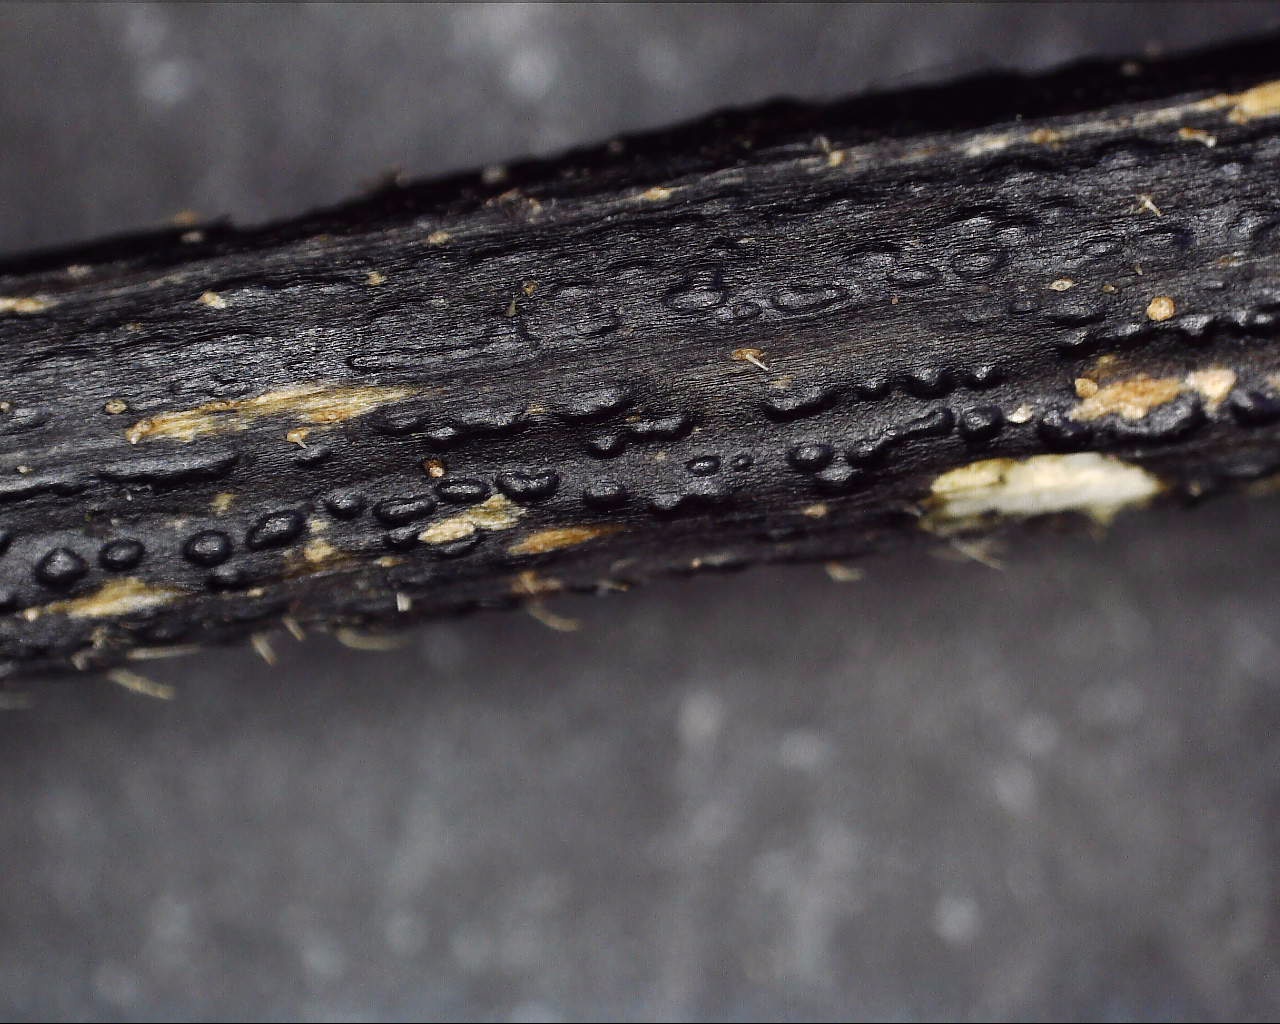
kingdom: Fungi
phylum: Ascomycota
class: Sordariomycetes
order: Diaporthales
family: Diaporthaceae
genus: Diaporthopsis
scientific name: Diaporthopsis urticae
